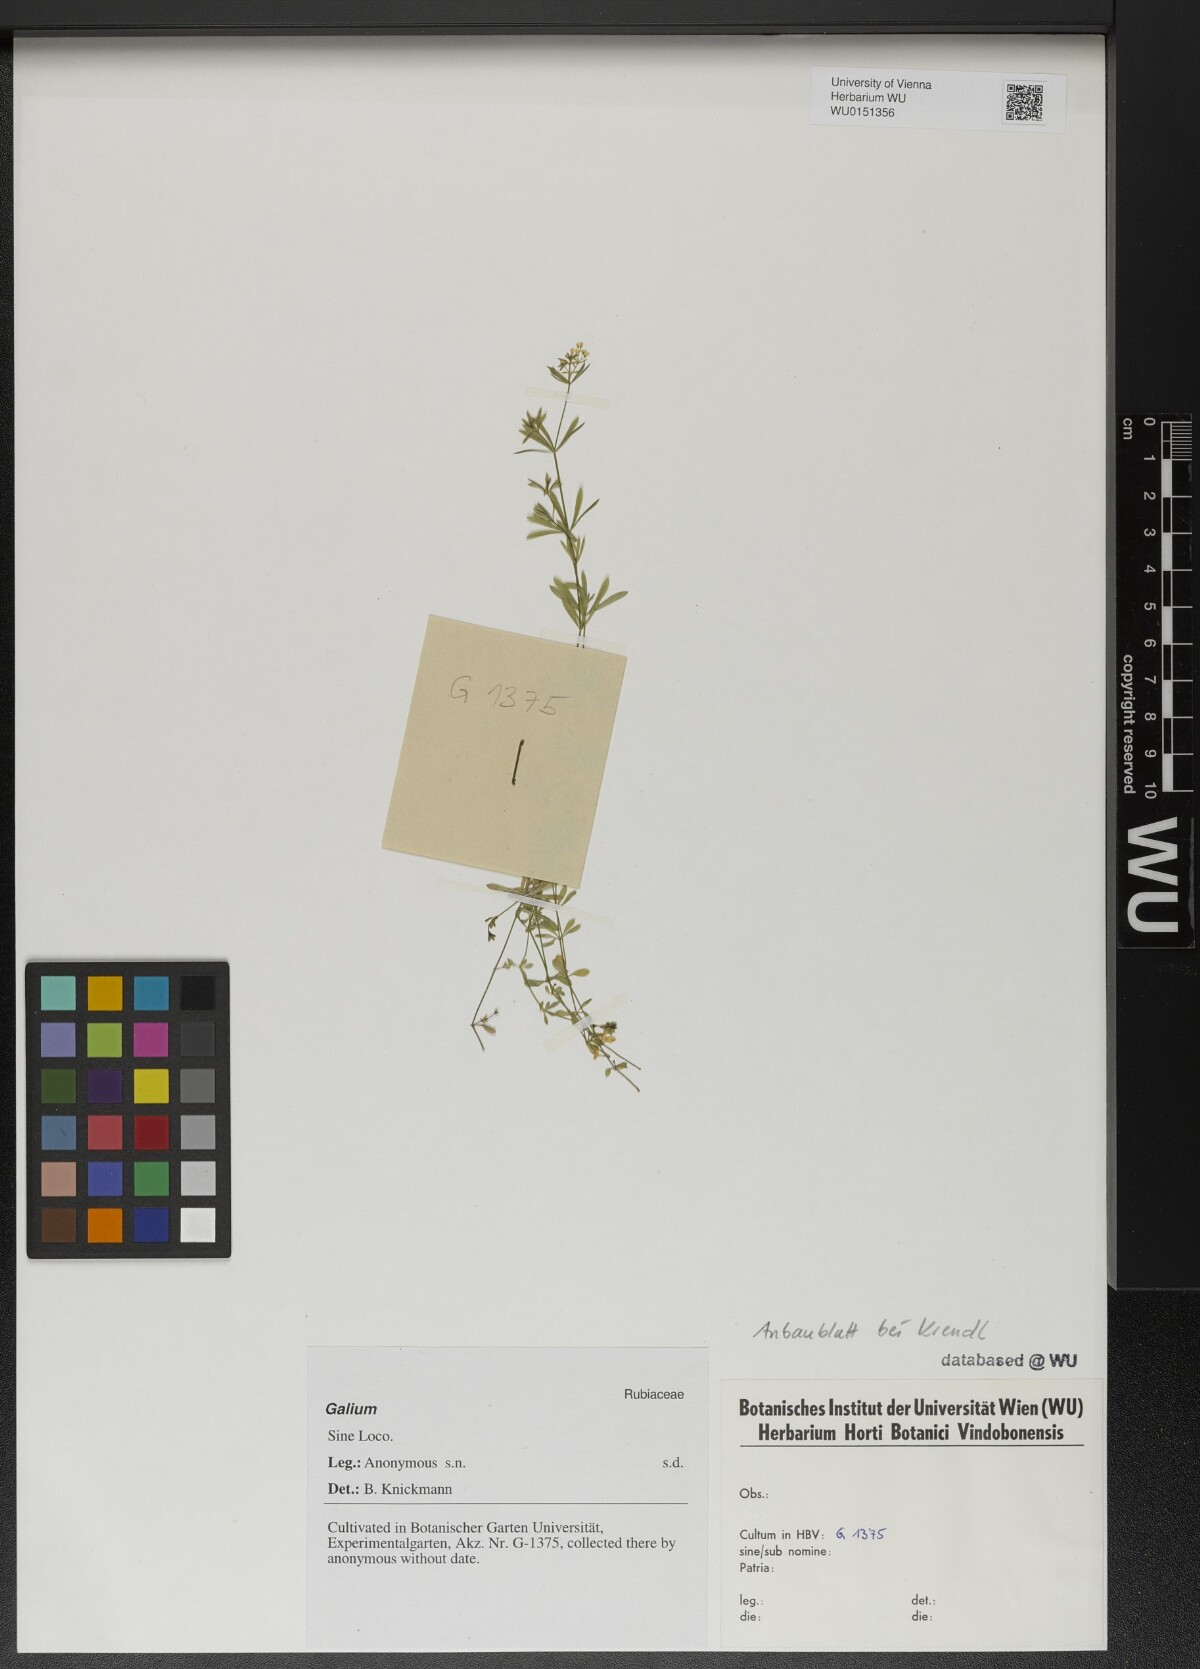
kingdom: Plantae
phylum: Tracheophyta
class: Magnoliopsida
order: Gentianales
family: Rubiaceae
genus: Galium
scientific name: Galium
